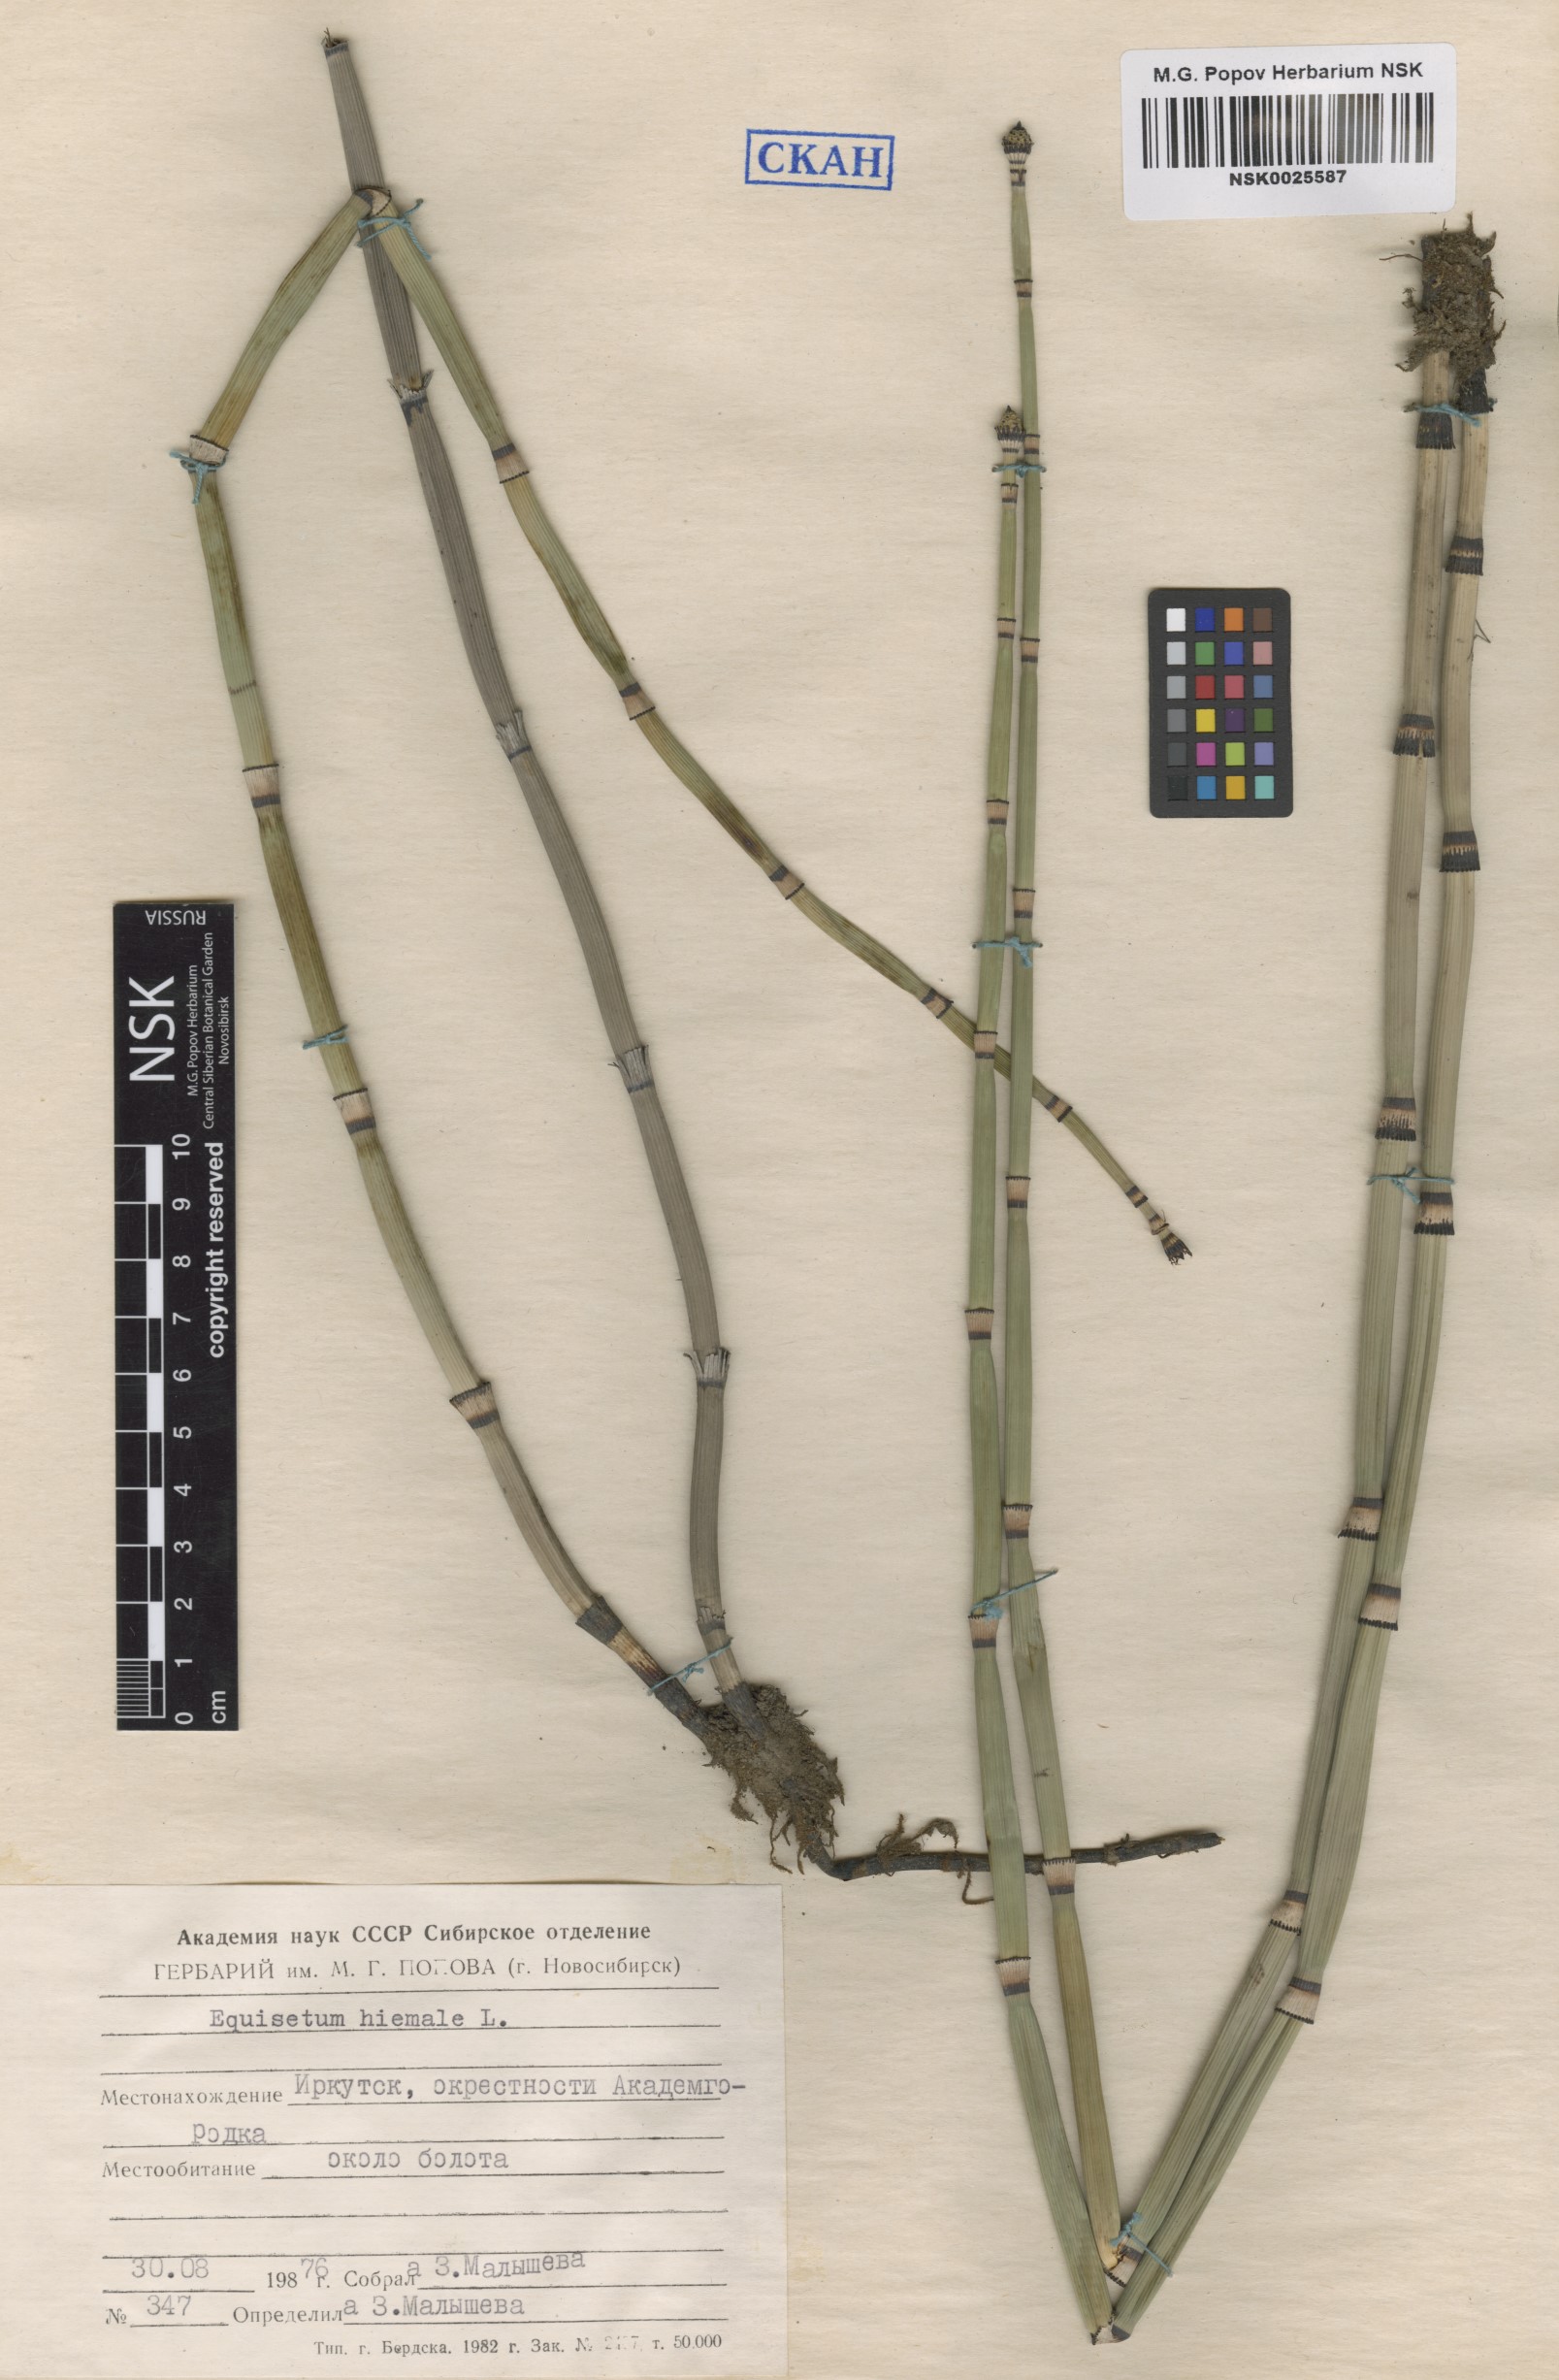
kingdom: Plantae
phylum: Tracheophyta
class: Polypodiopsida
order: Equisetales
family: Equisetaceae
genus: Equisetum
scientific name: Equisetum hyemale
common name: Rough horsetail
